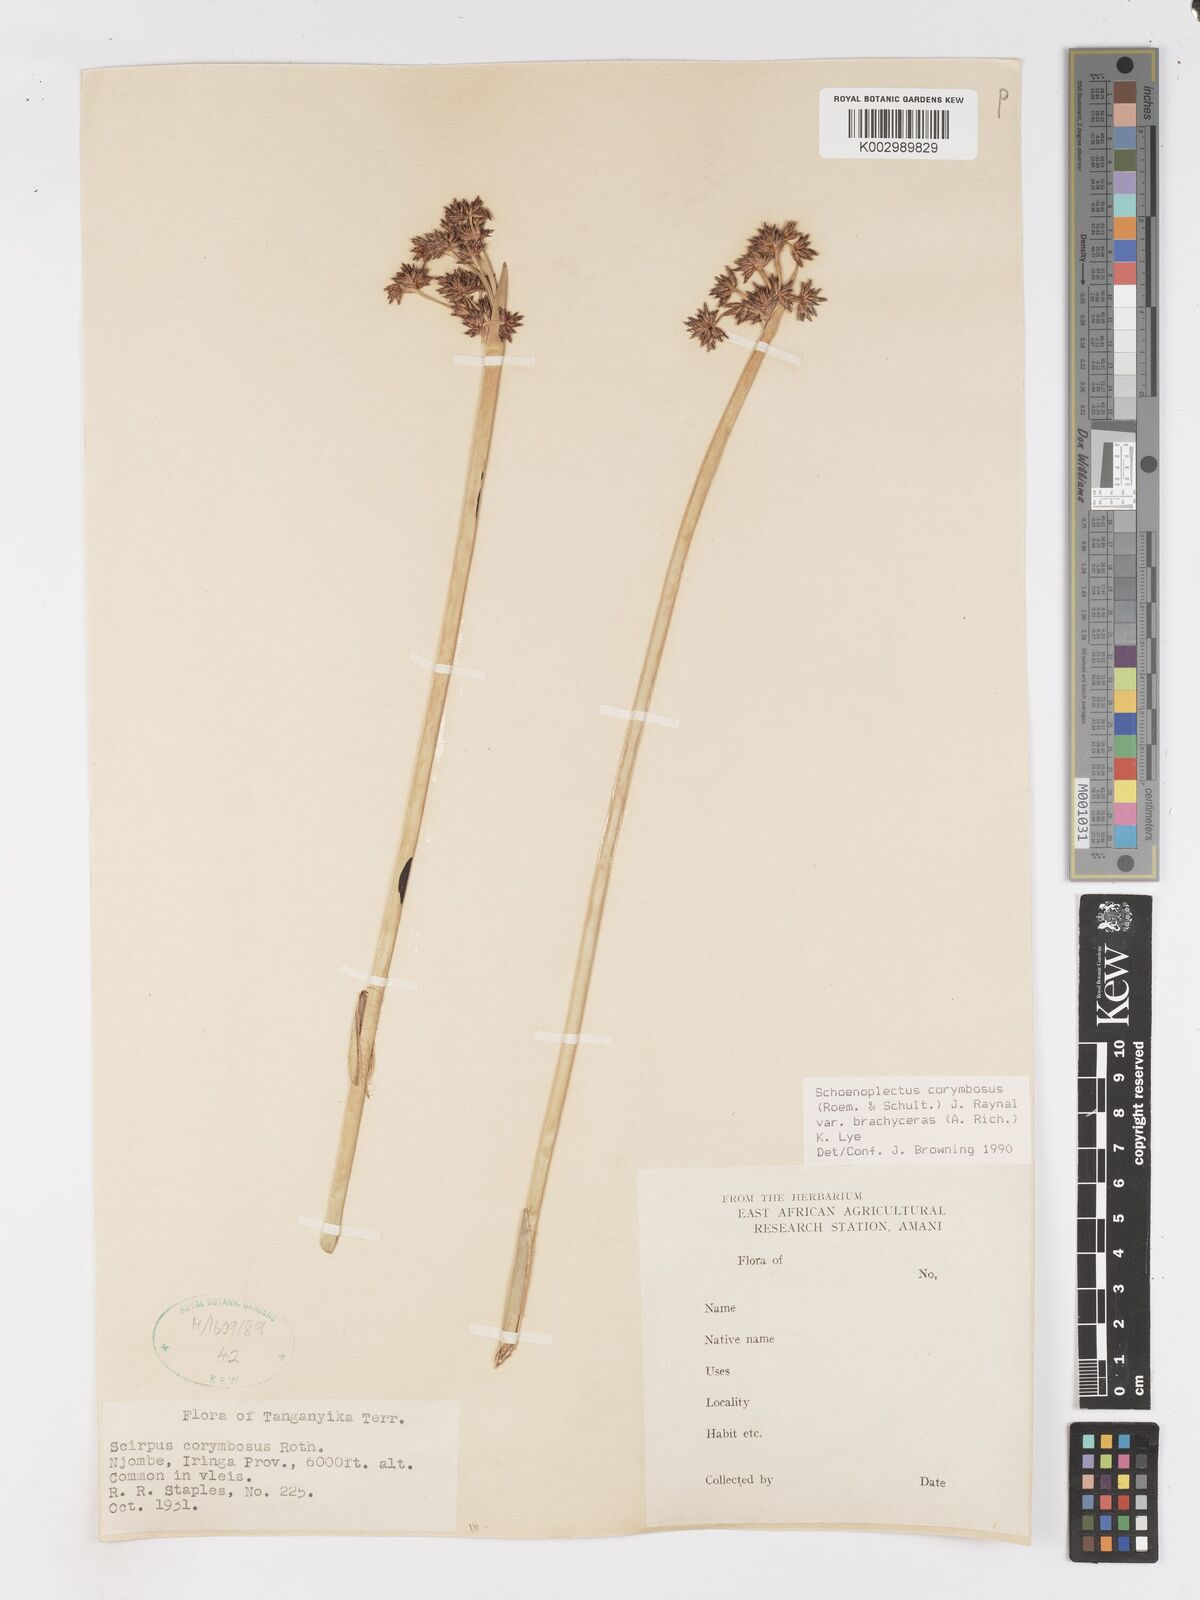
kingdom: Plantae
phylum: Tracheophyta
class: Liliopsida
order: Poales
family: Cyperaceae
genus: Schoenoplectiella
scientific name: Schoenoplectiella brachyceras
